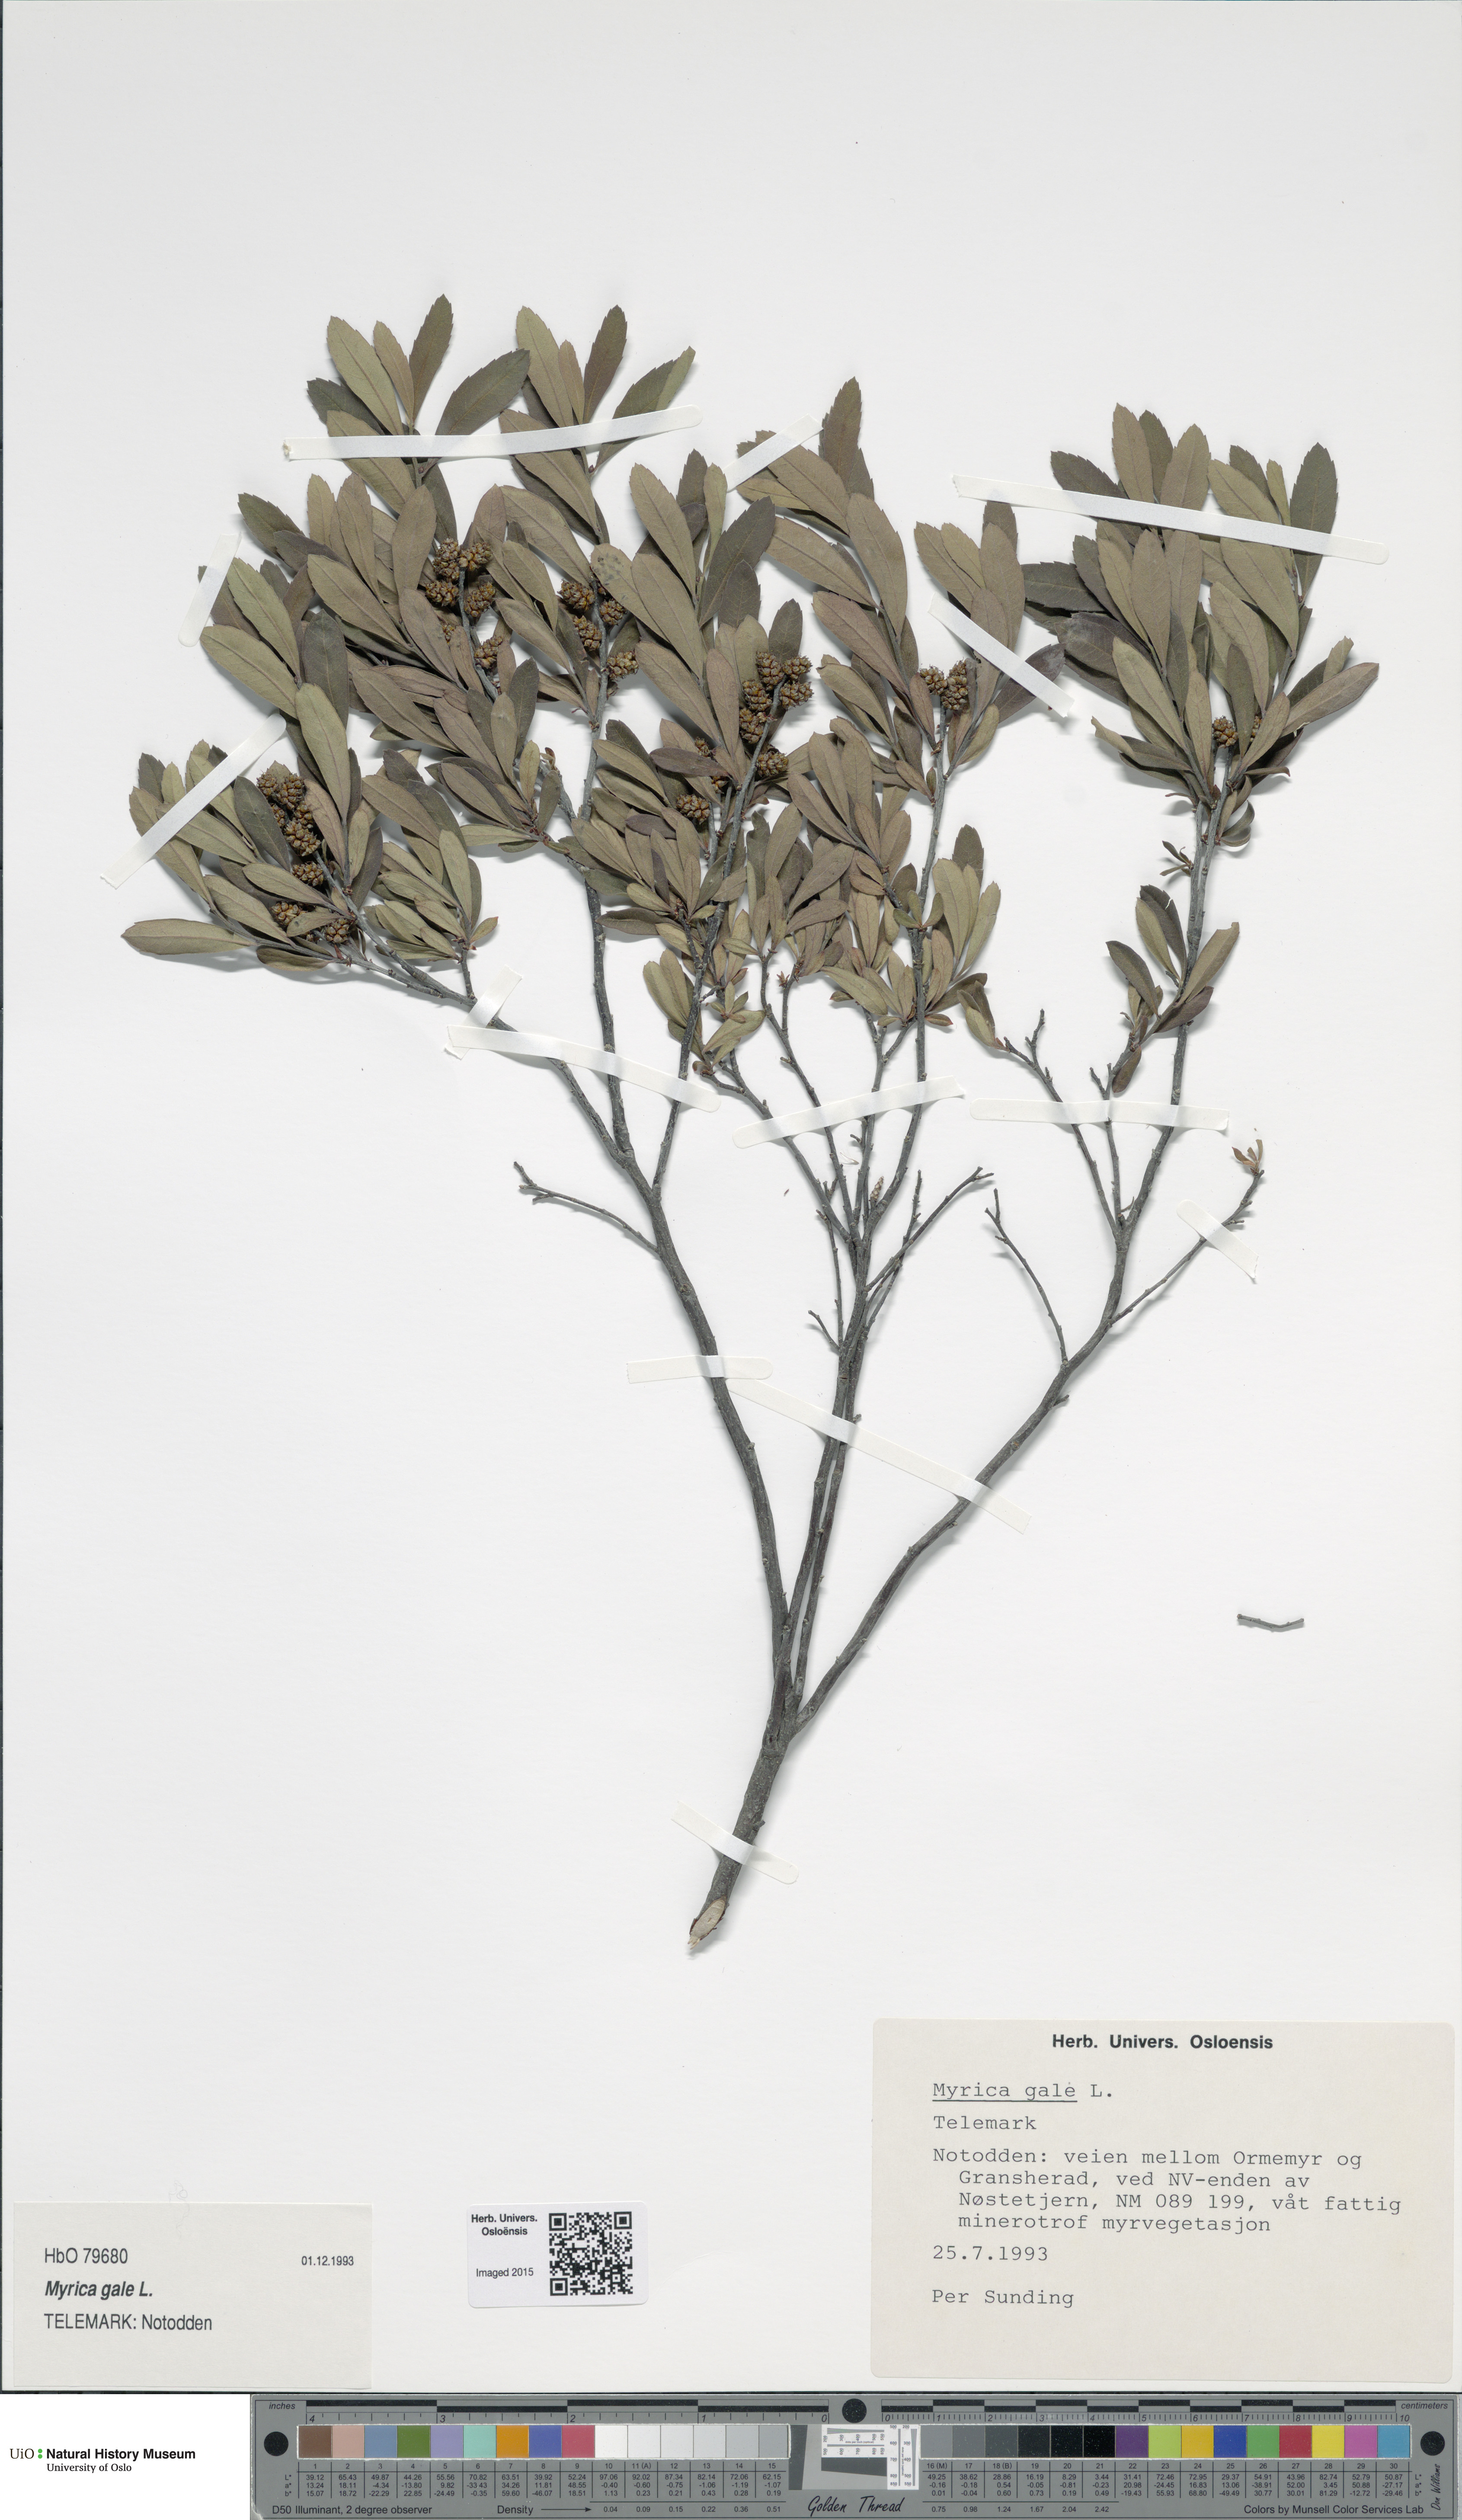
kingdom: Plantae
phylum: Tracheophyta
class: Magnoliopsida
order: Fagales
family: Myricaceae
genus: Myrica
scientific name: Myrica gale
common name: Sweet gale
